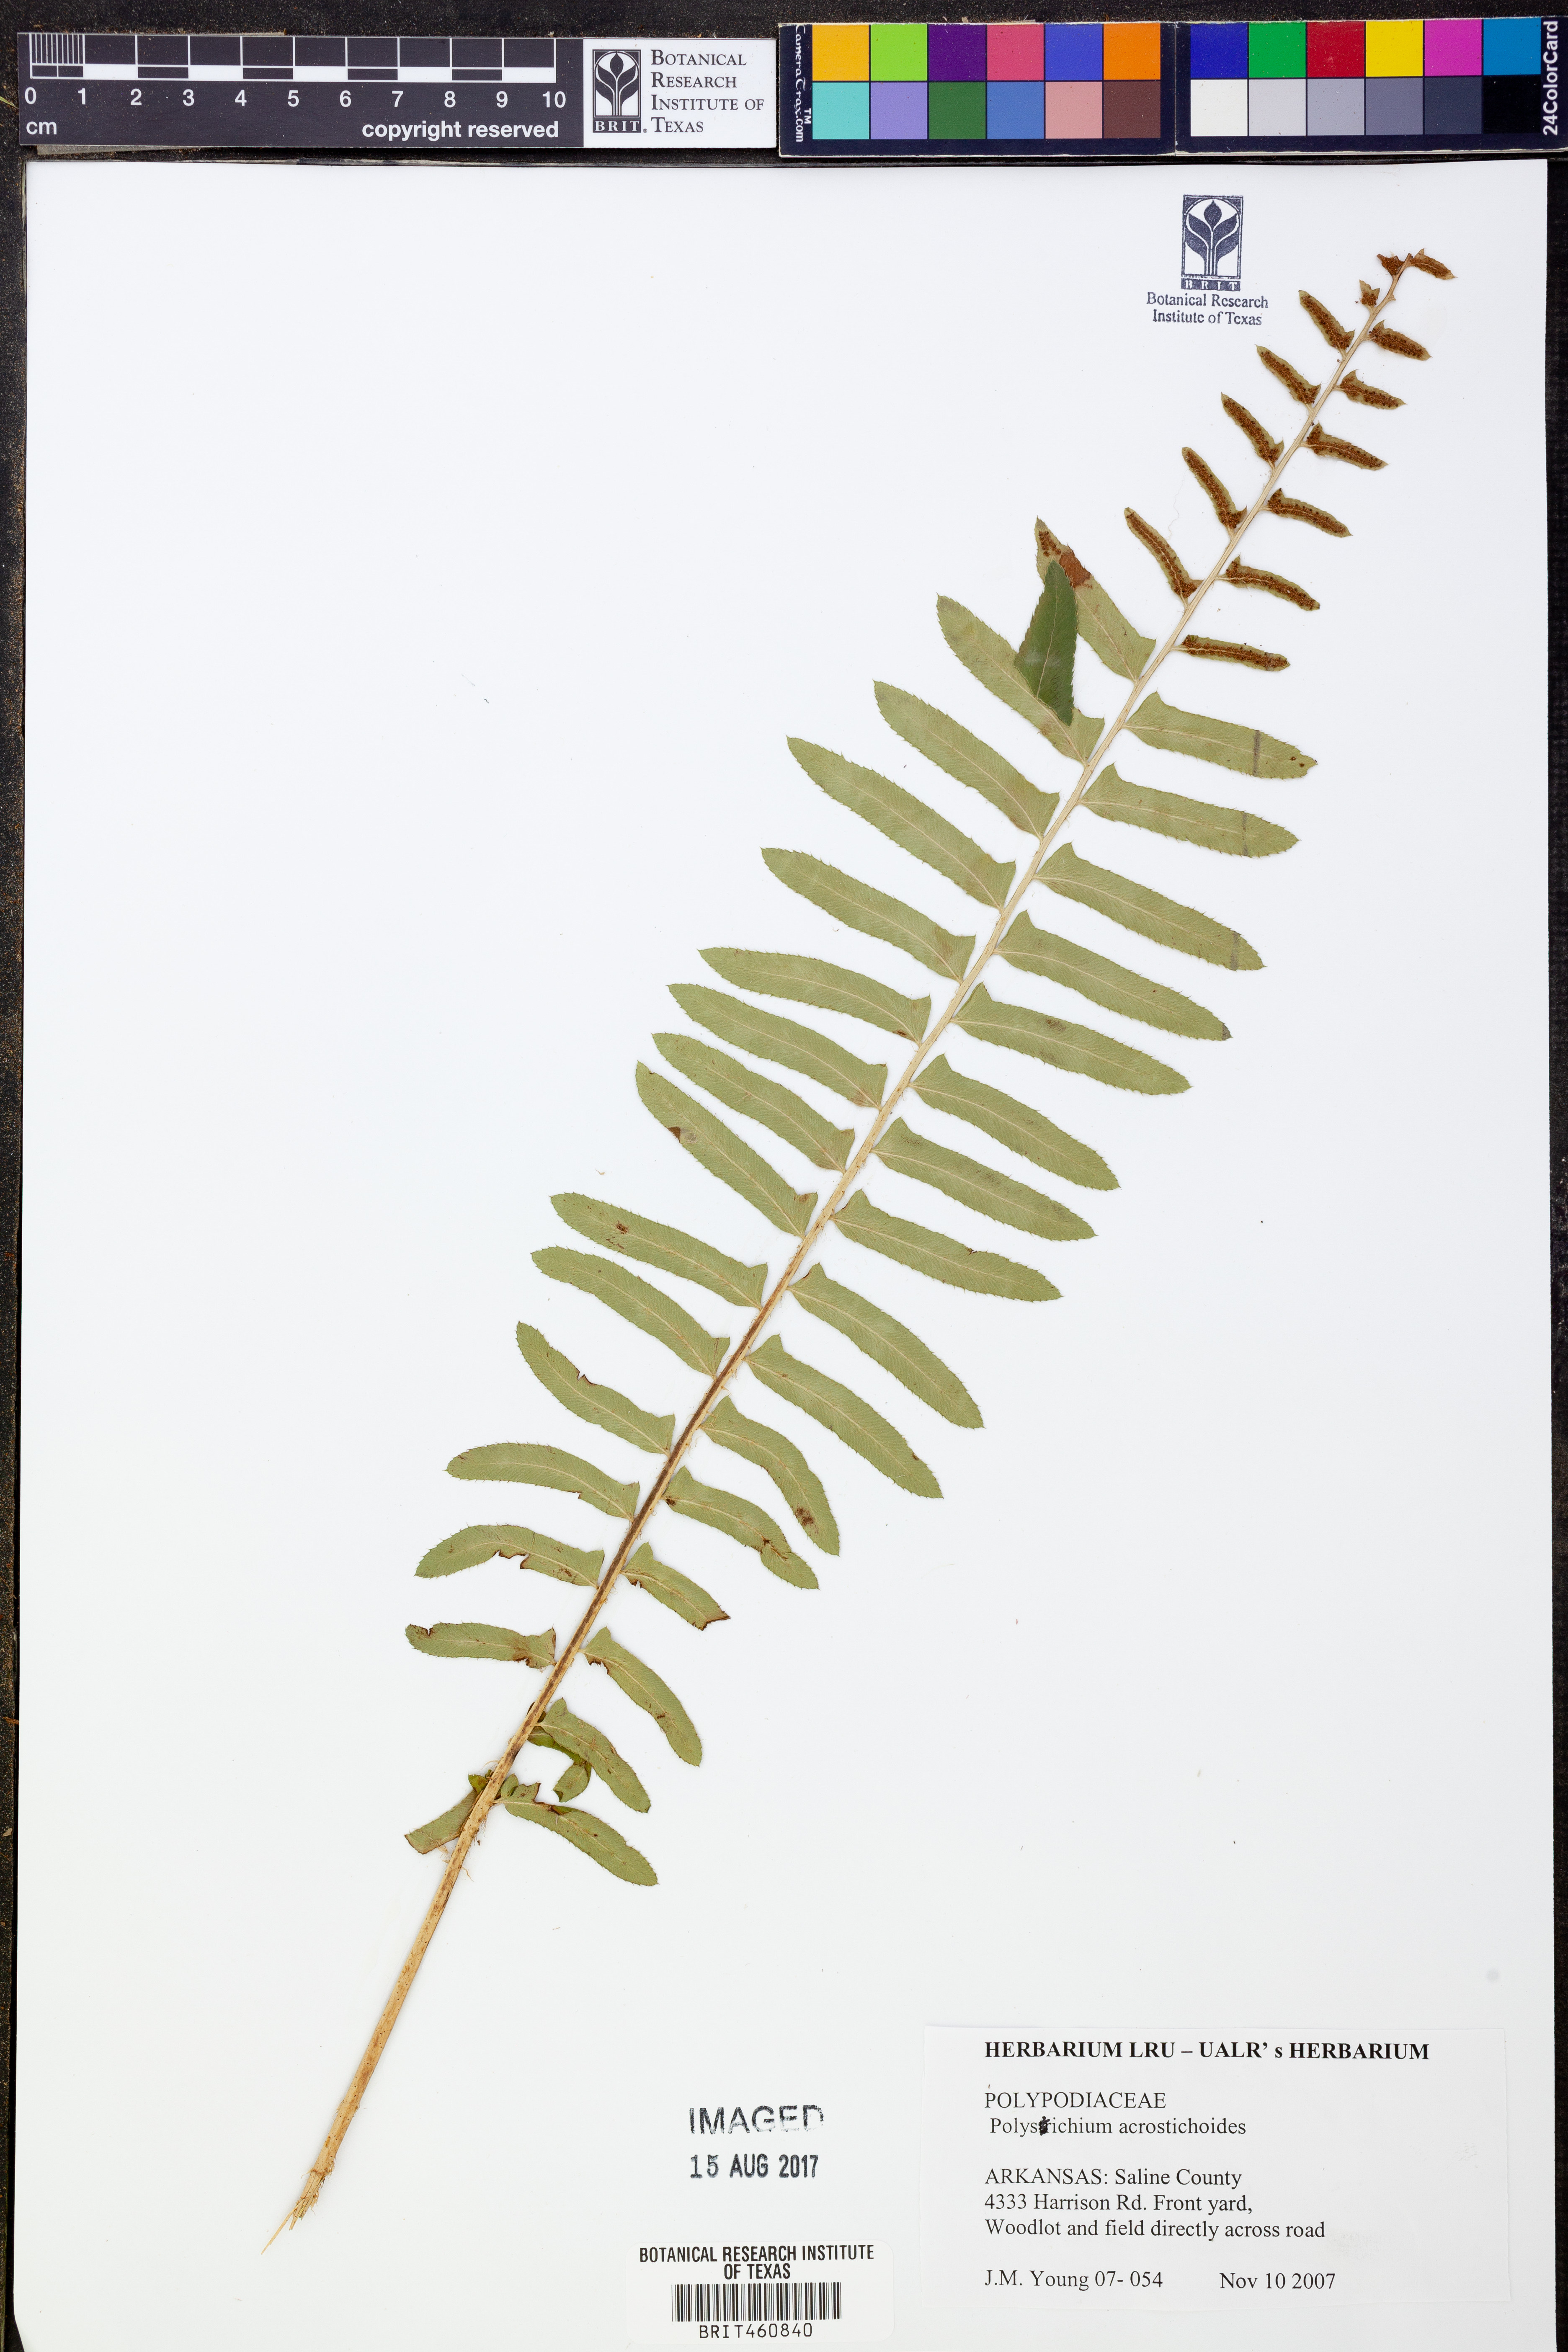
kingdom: Plantae
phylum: Tracheophyta
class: Polypodiopsida
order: Polypodiales
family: Dryopteridaceae
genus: Polystichum
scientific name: Polystichum acrostichoides
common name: Christmas fern
